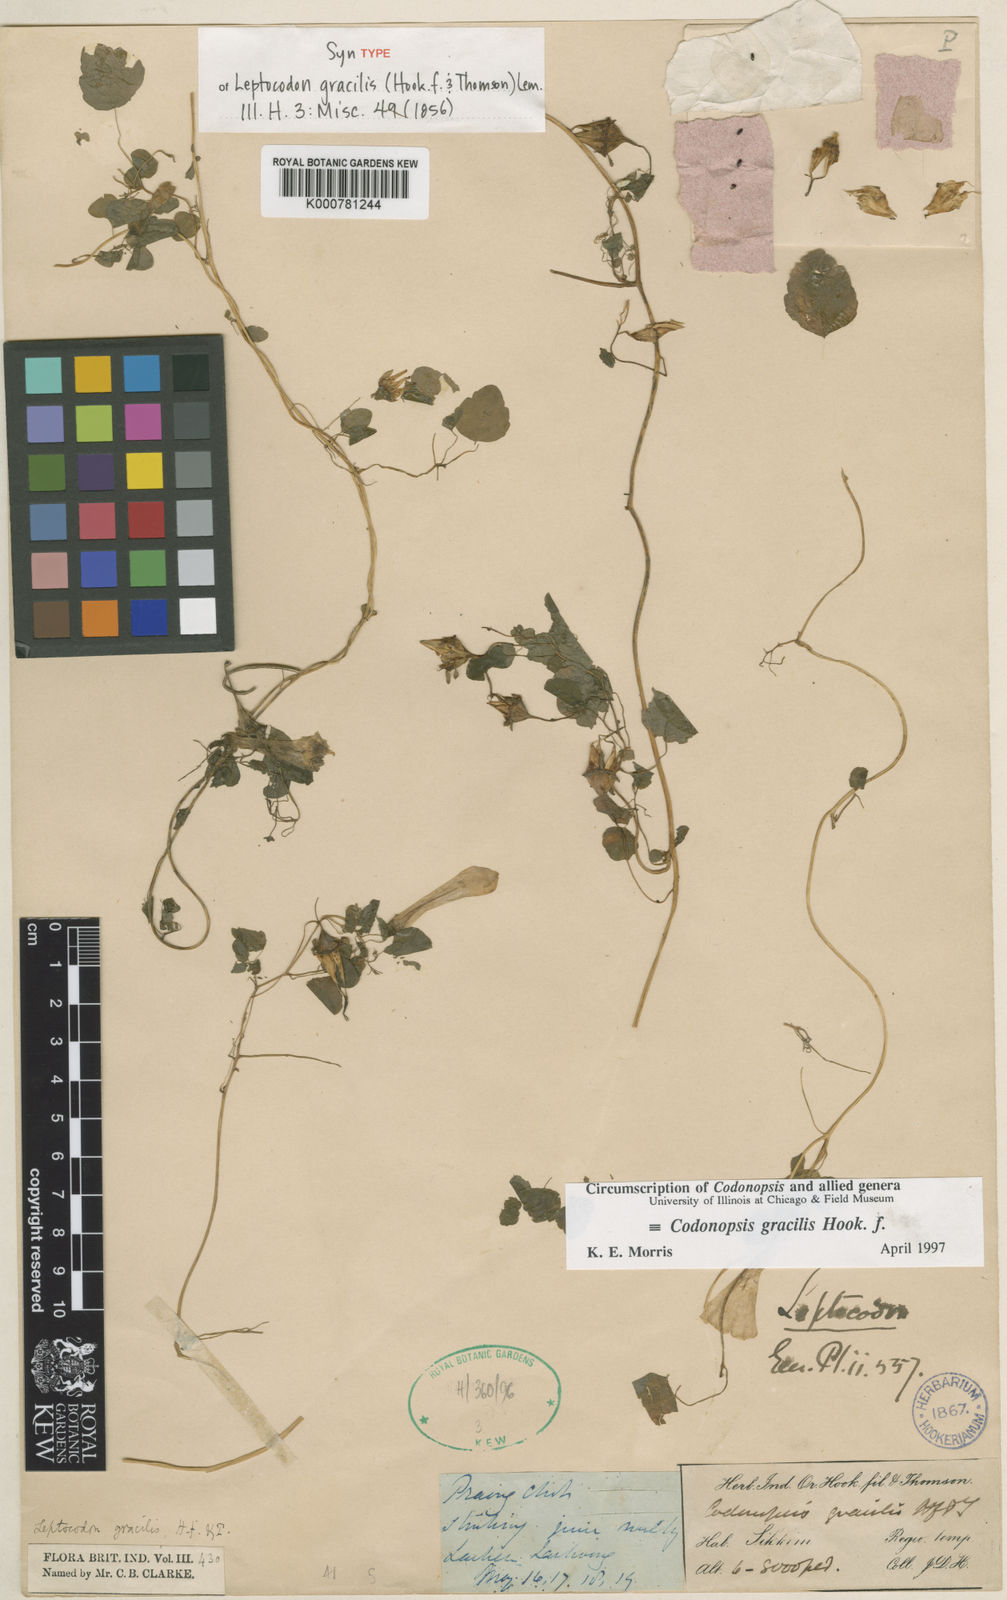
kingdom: Plantae
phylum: Tracheophyta
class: Magnoliopsida
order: Asterales
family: Campanulaceae
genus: Codonopsis
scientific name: Codonopsis gracilis
